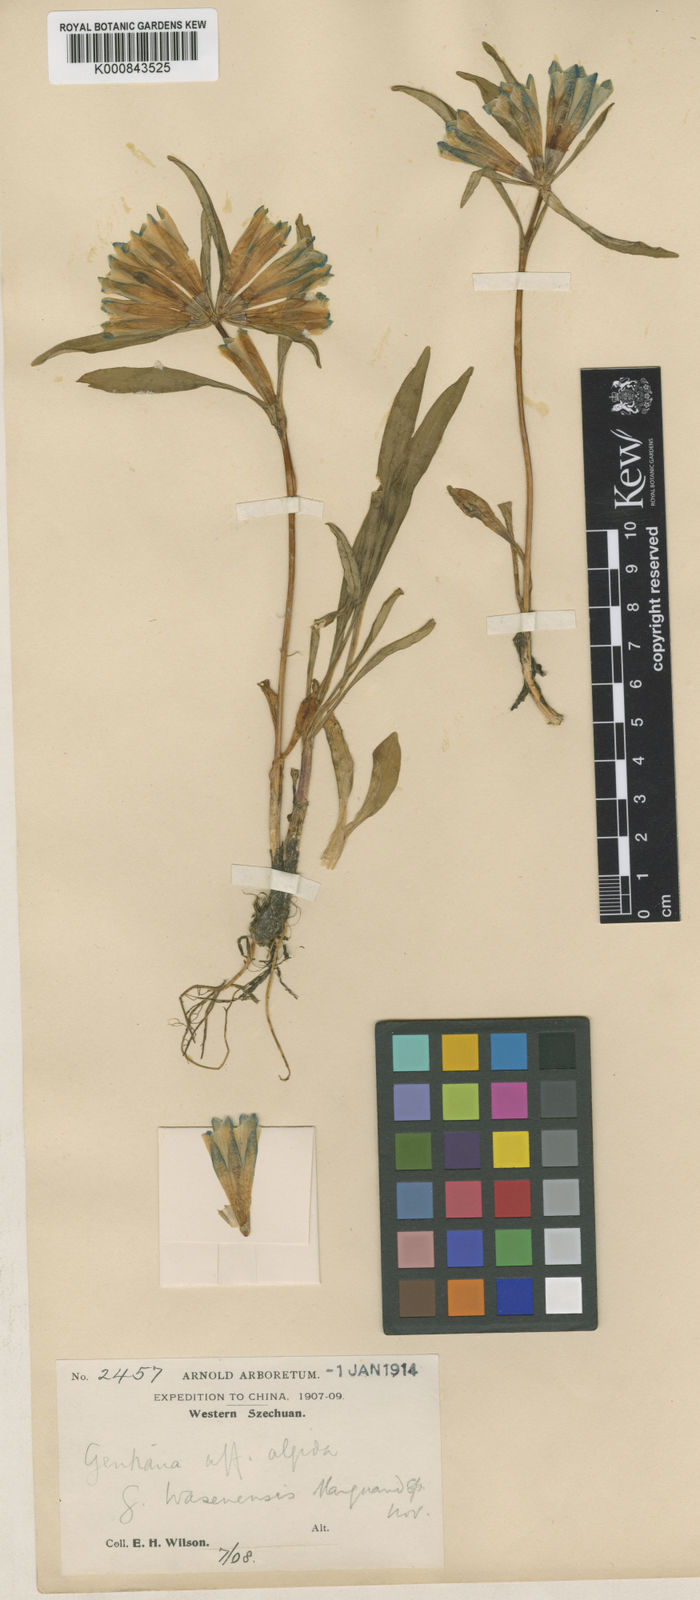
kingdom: Plantae
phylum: Tracheophyta
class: Magnoliopsida
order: Gentianales
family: Gentianaceae
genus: Gentiana
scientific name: Gentiana wasenensis
